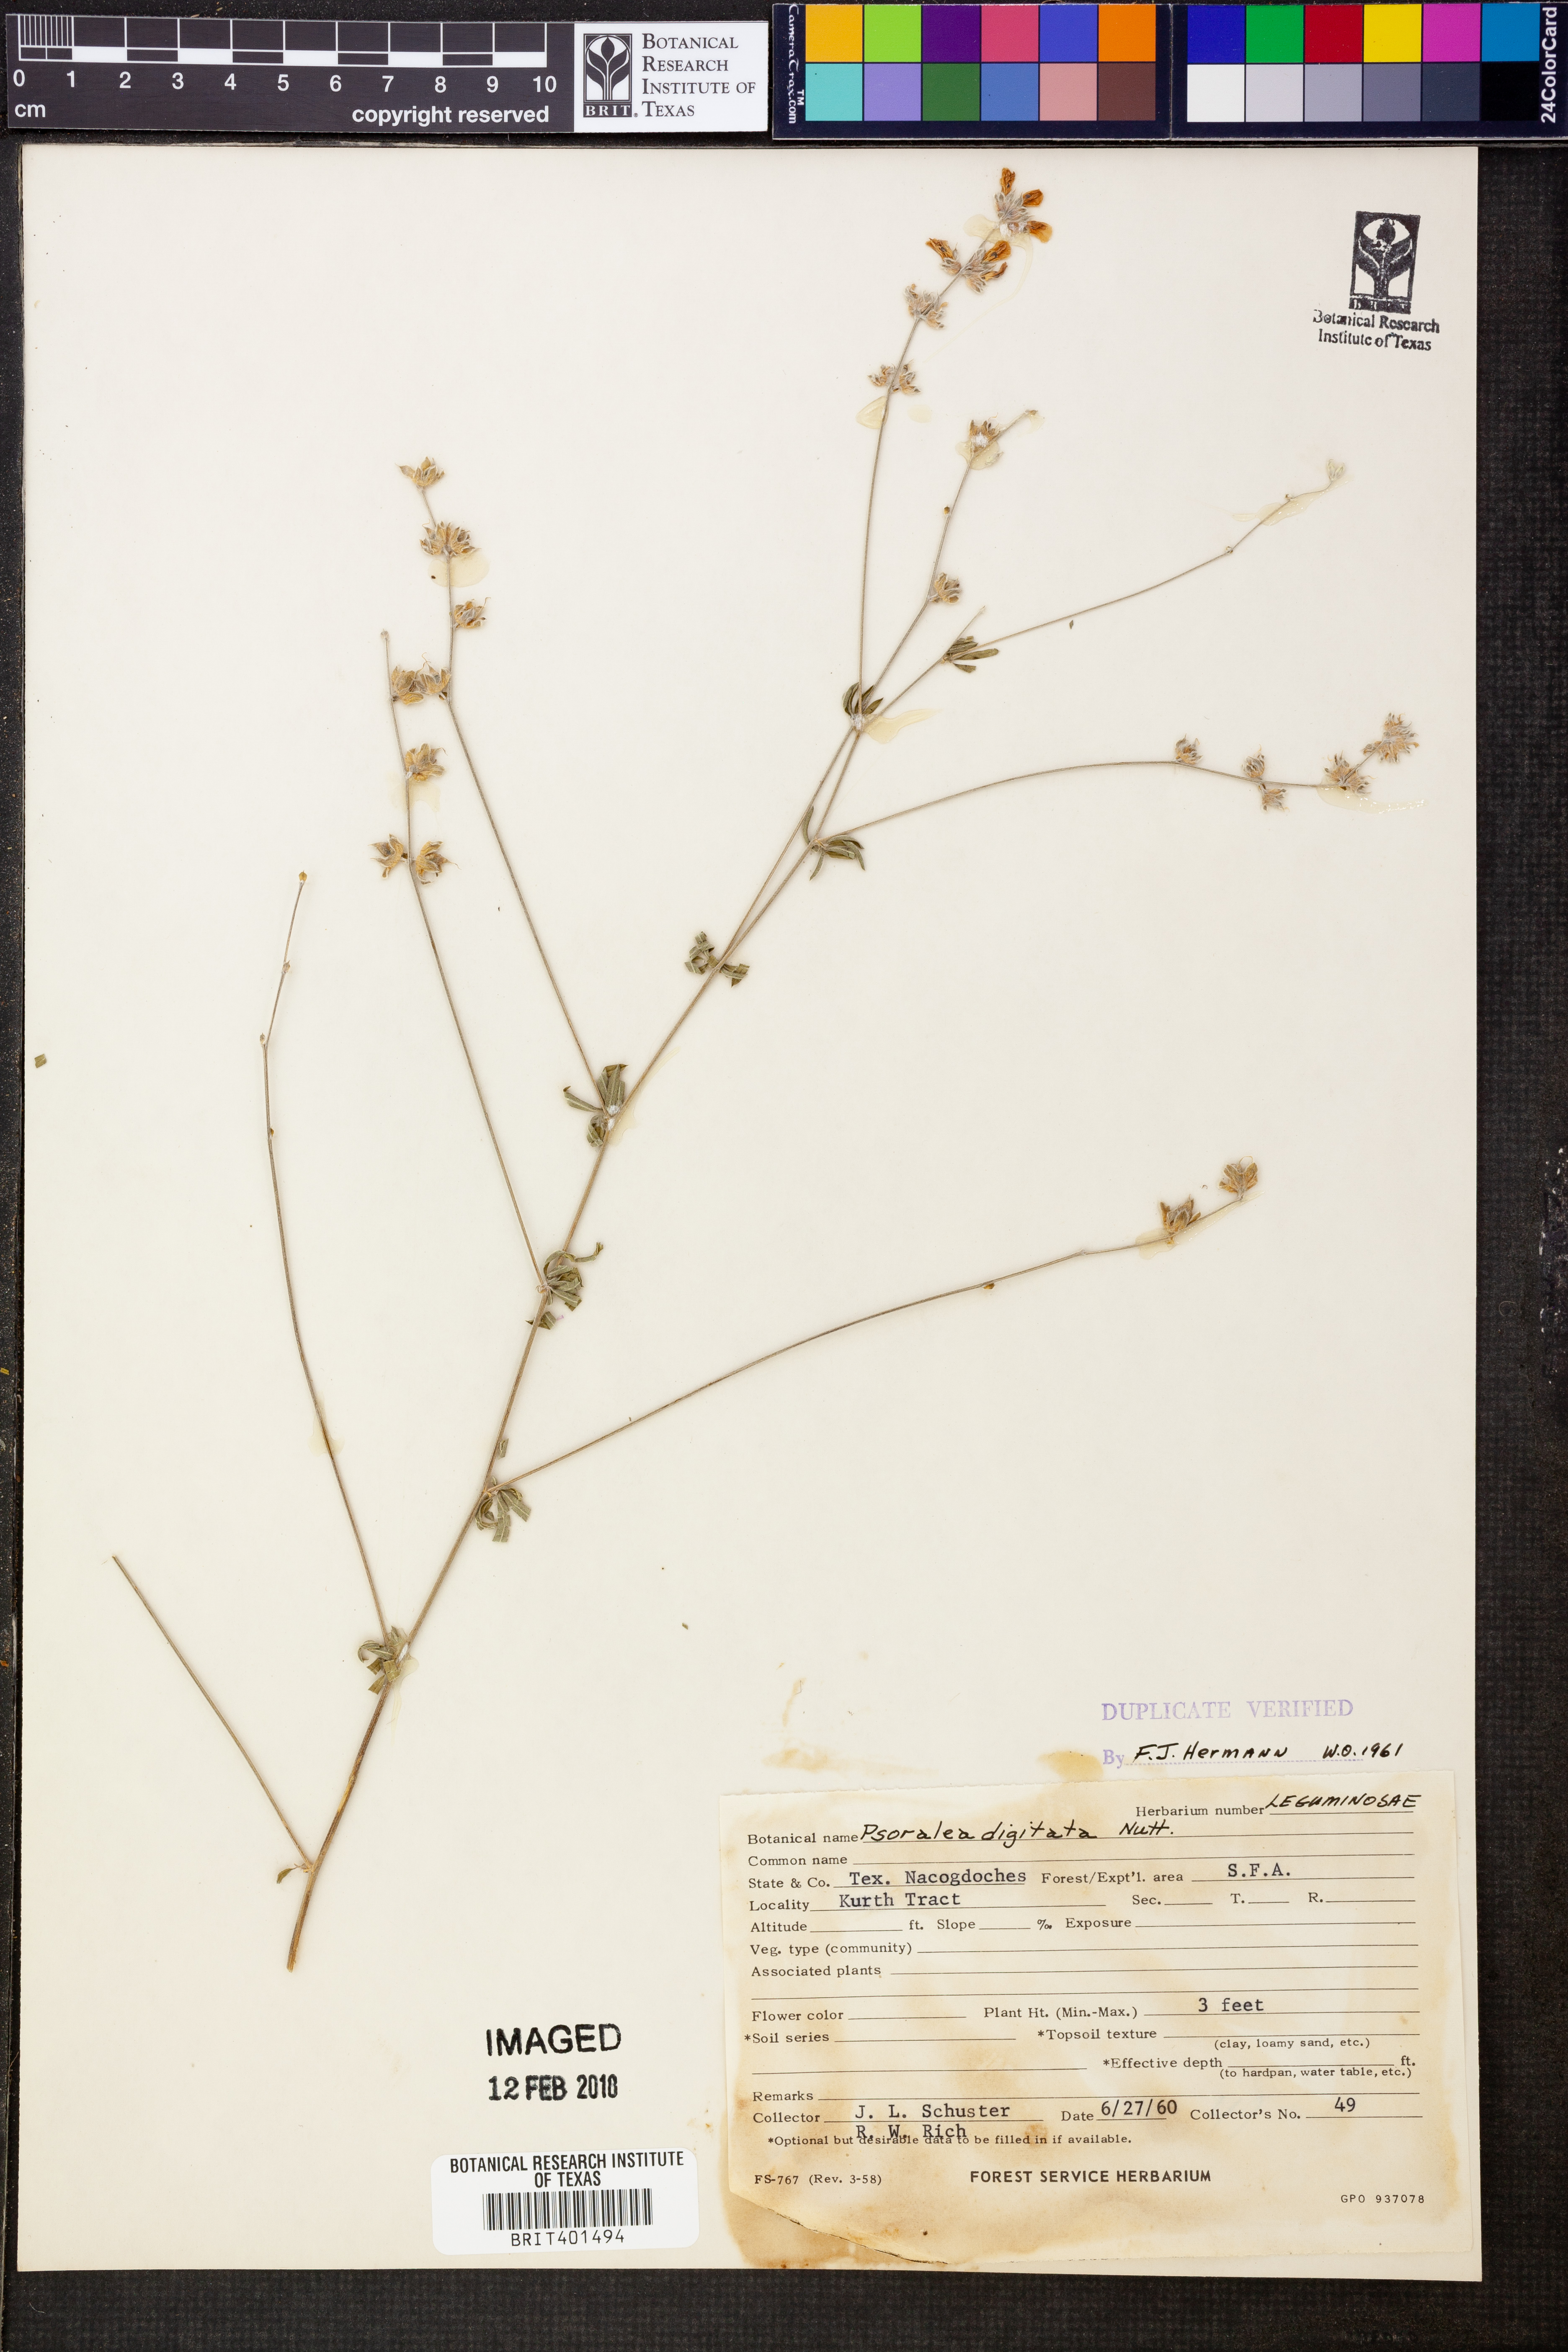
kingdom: Plantae
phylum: Tracheophyta
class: Magnoliopsida
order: Fabales
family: Fabaceae
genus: Pediomelum
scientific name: Pediomelum digitatum
